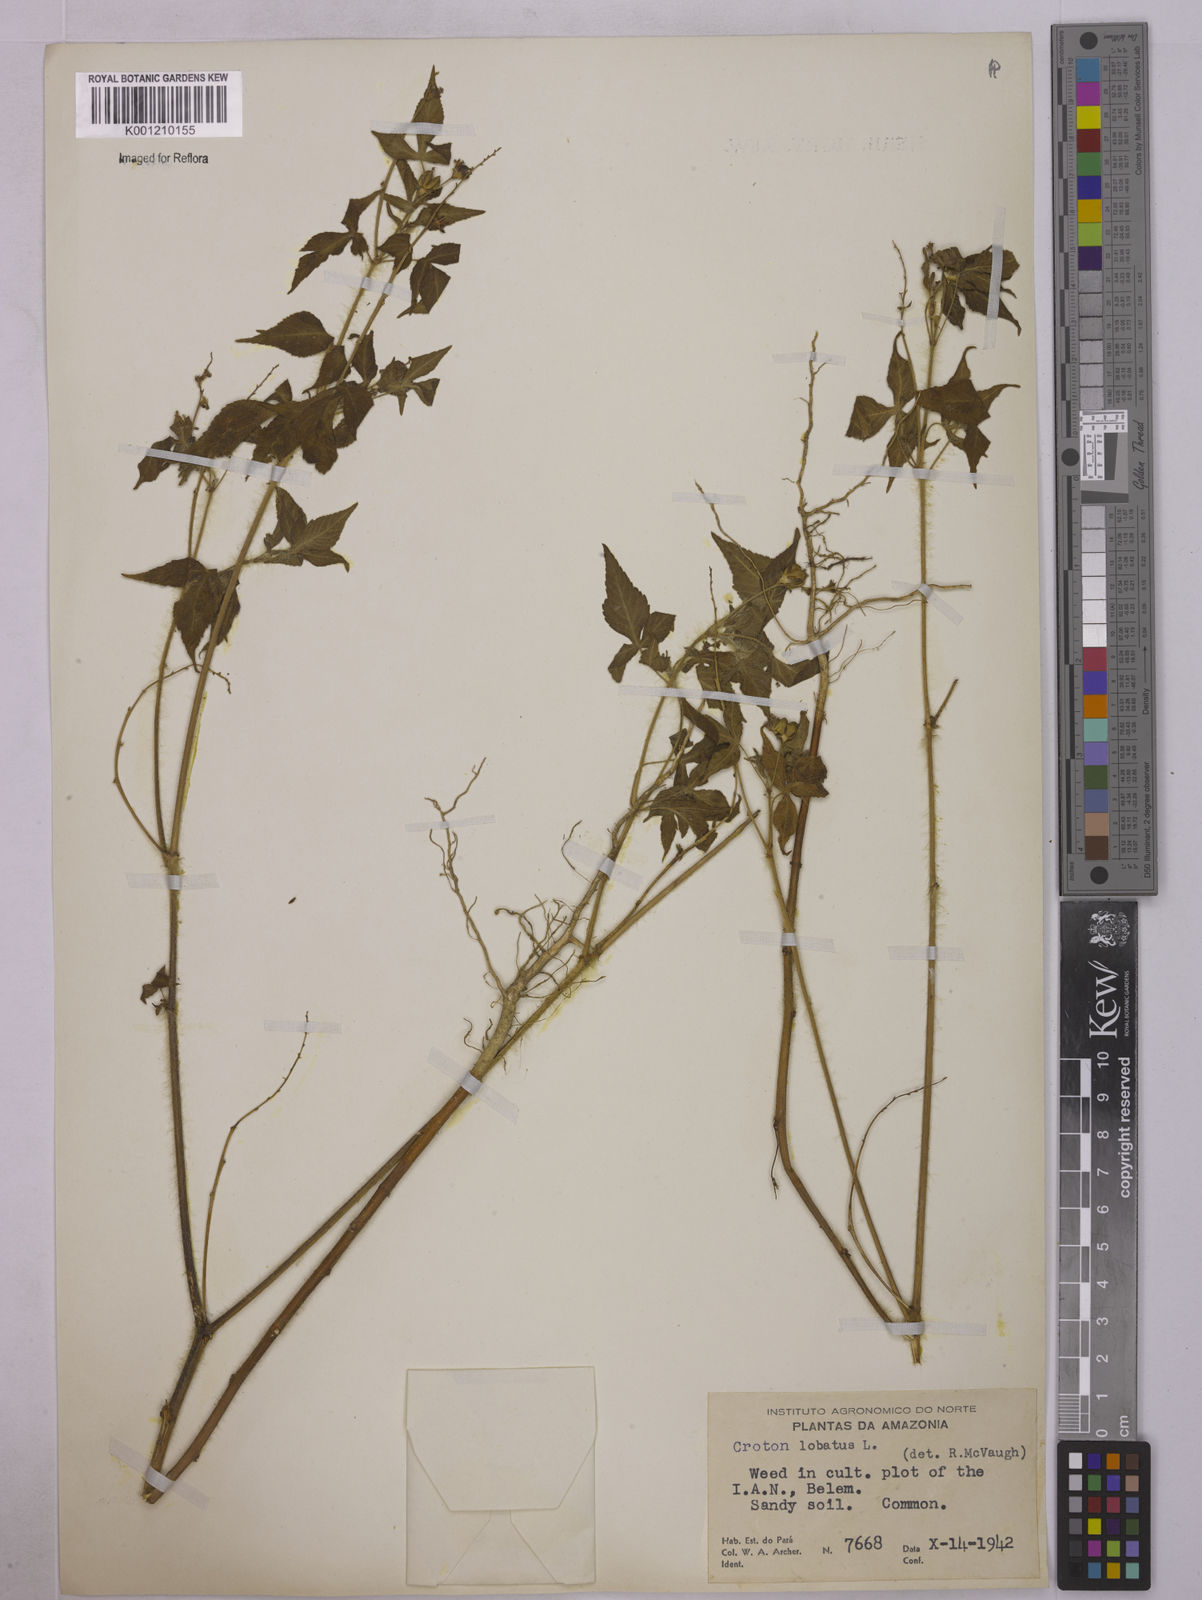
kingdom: Plantae
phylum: Tracheophyta
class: Magnoliopsida
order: Malpighiales
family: Euphorbiaceae
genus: Astraea
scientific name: Astraea lobata
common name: Lobed croton
